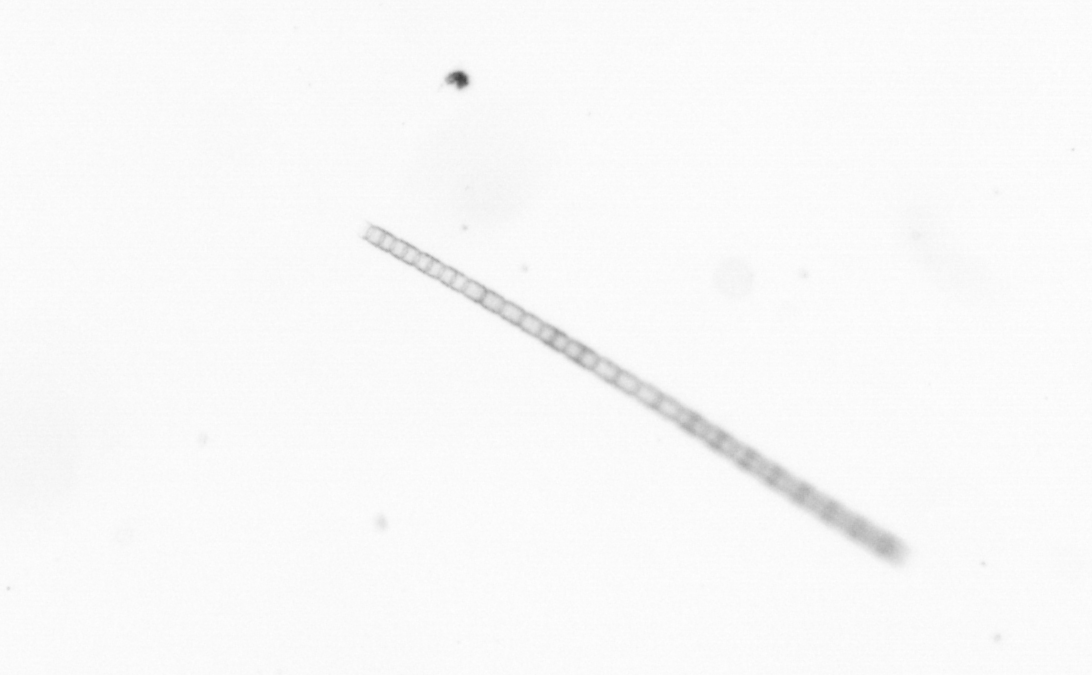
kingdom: Chromista
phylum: Ochrophyta
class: Bacillariophyceae
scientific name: Bacillariophyceae
